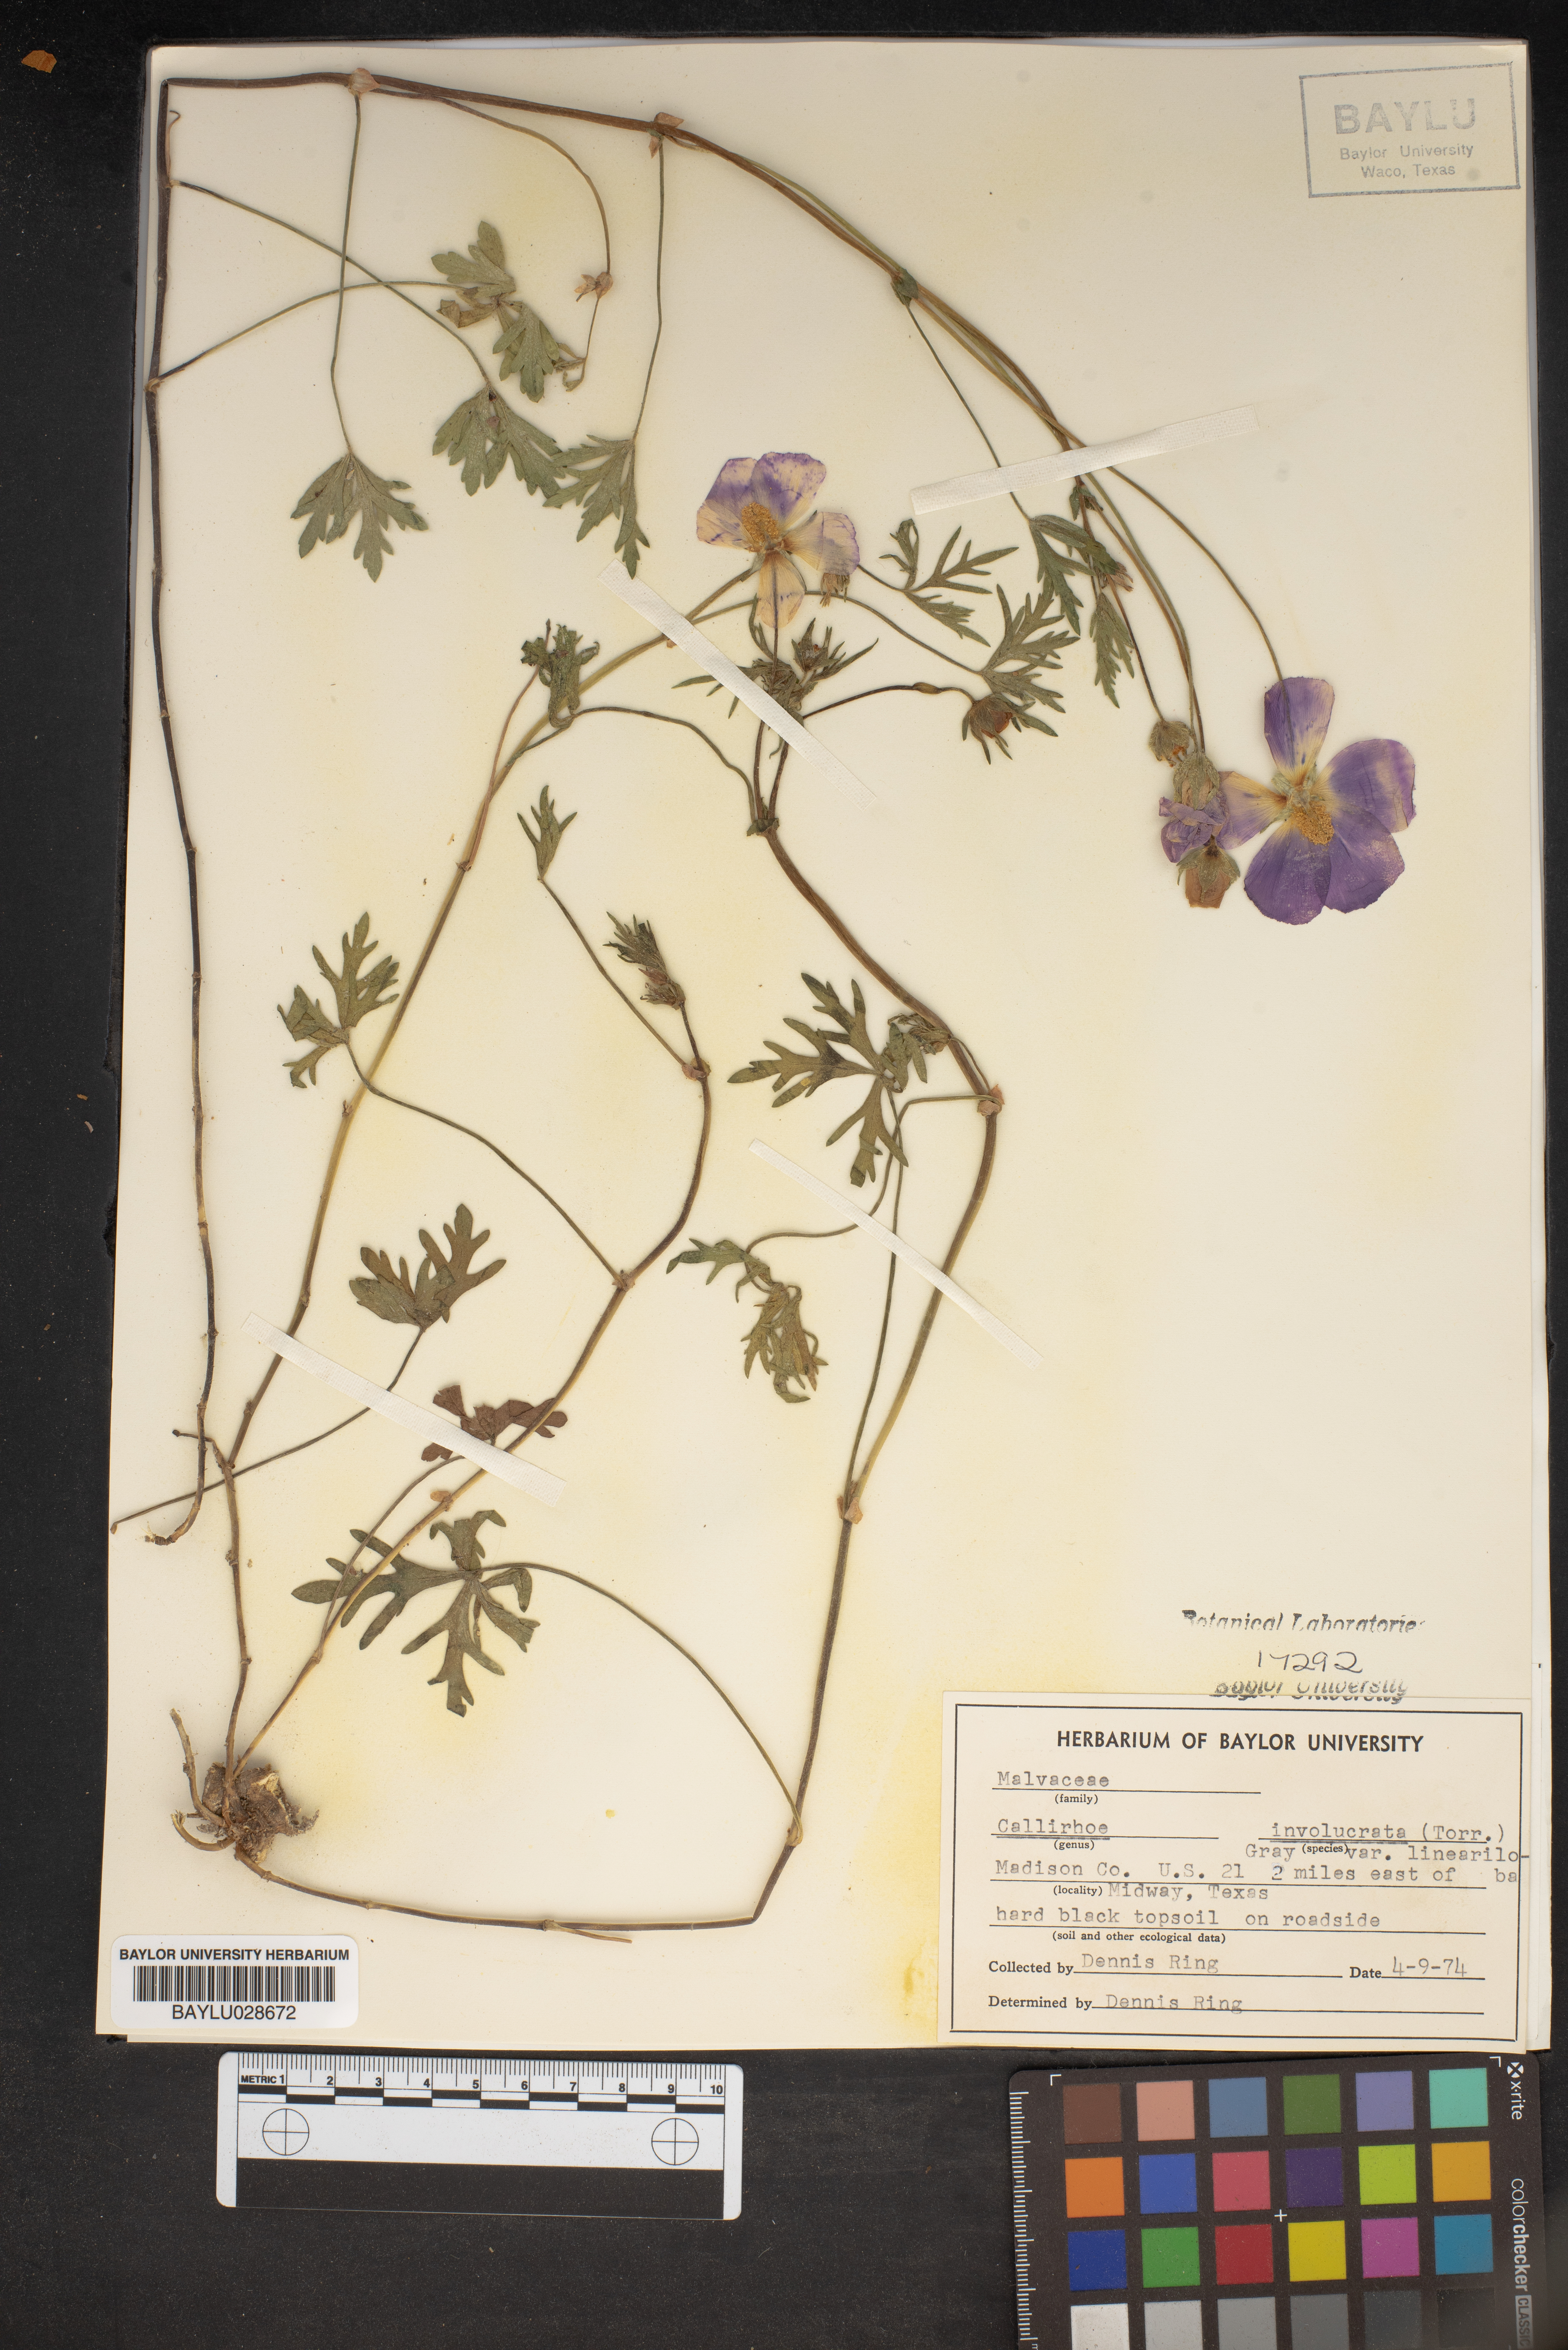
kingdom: Plantae
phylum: Tracheophyta
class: Magnoliopsida
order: Malvales
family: Malvaceae
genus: Callirhoe
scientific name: Callirhoe involucrata
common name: Purple poppy-mallow
